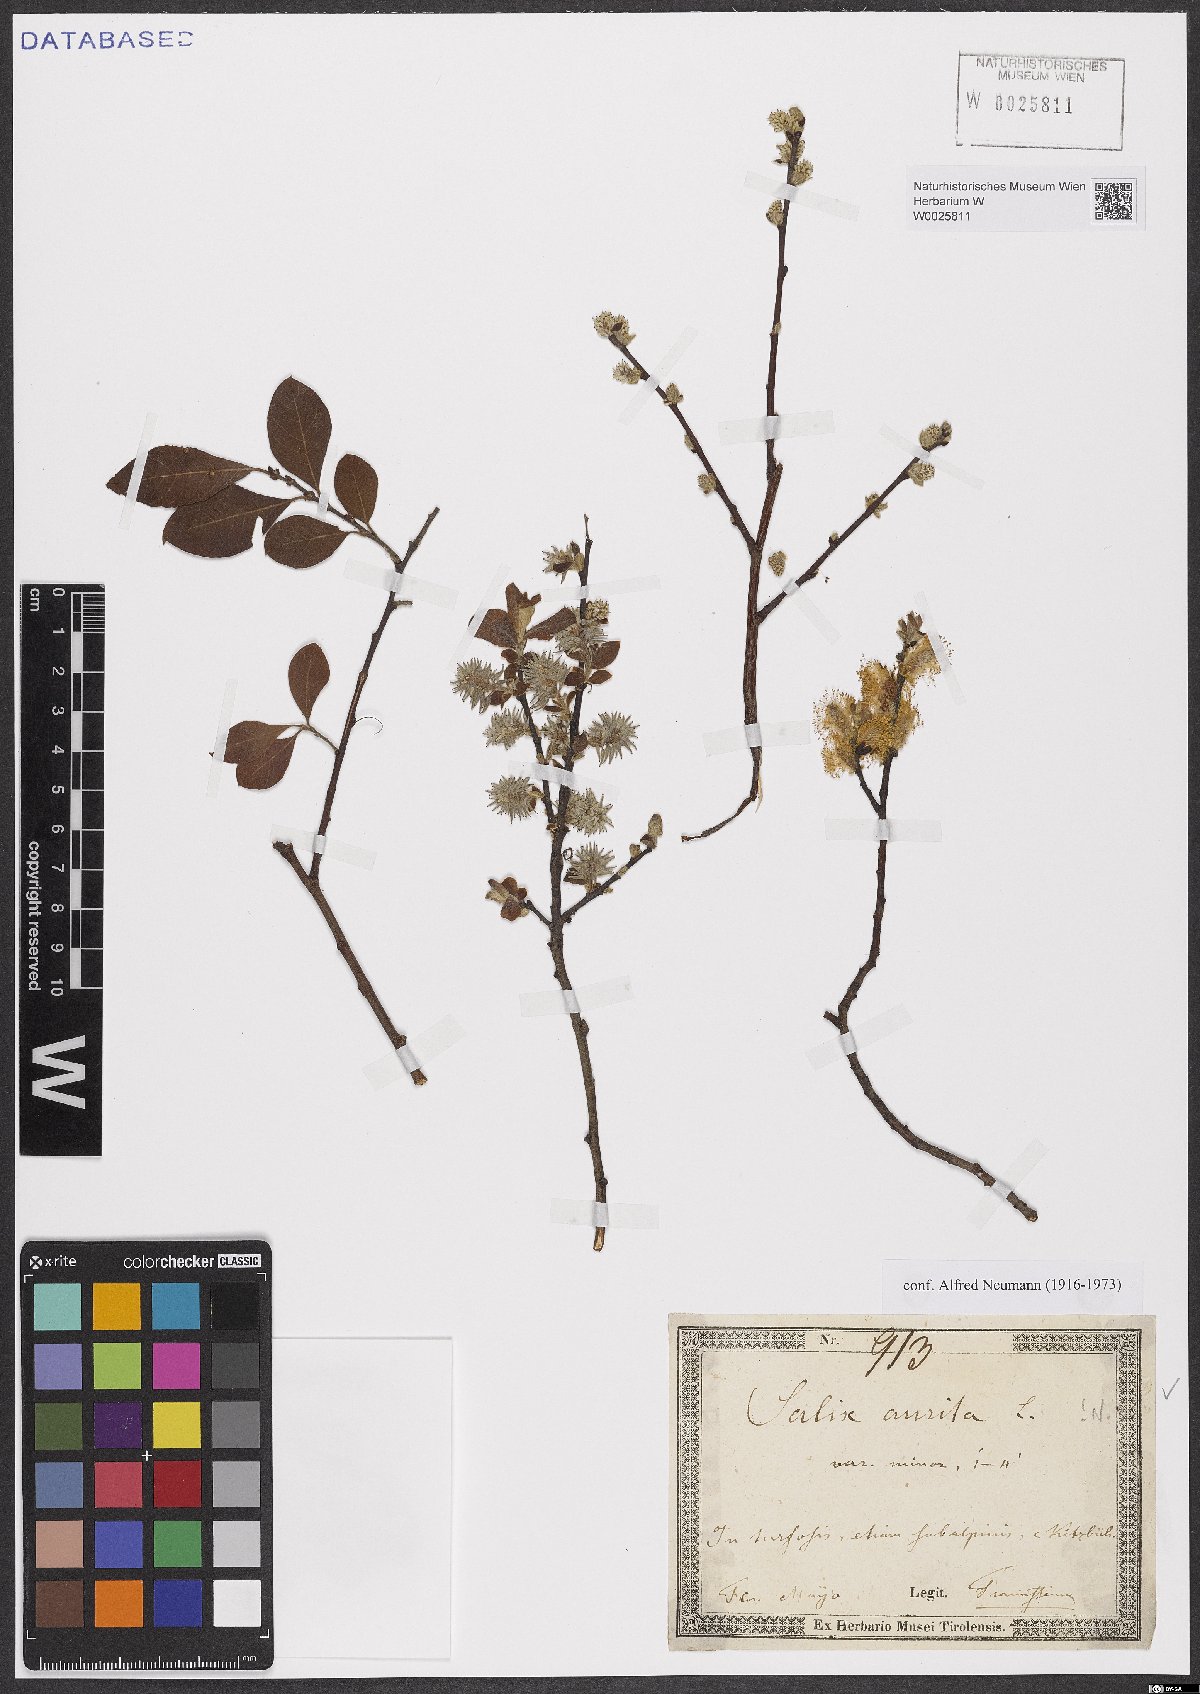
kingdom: Plantae
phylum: Tracheophyta
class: Magnoliopsida
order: Malpighiales
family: Salicaceae
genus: Salix
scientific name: Salix aurita
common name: Eared willow
